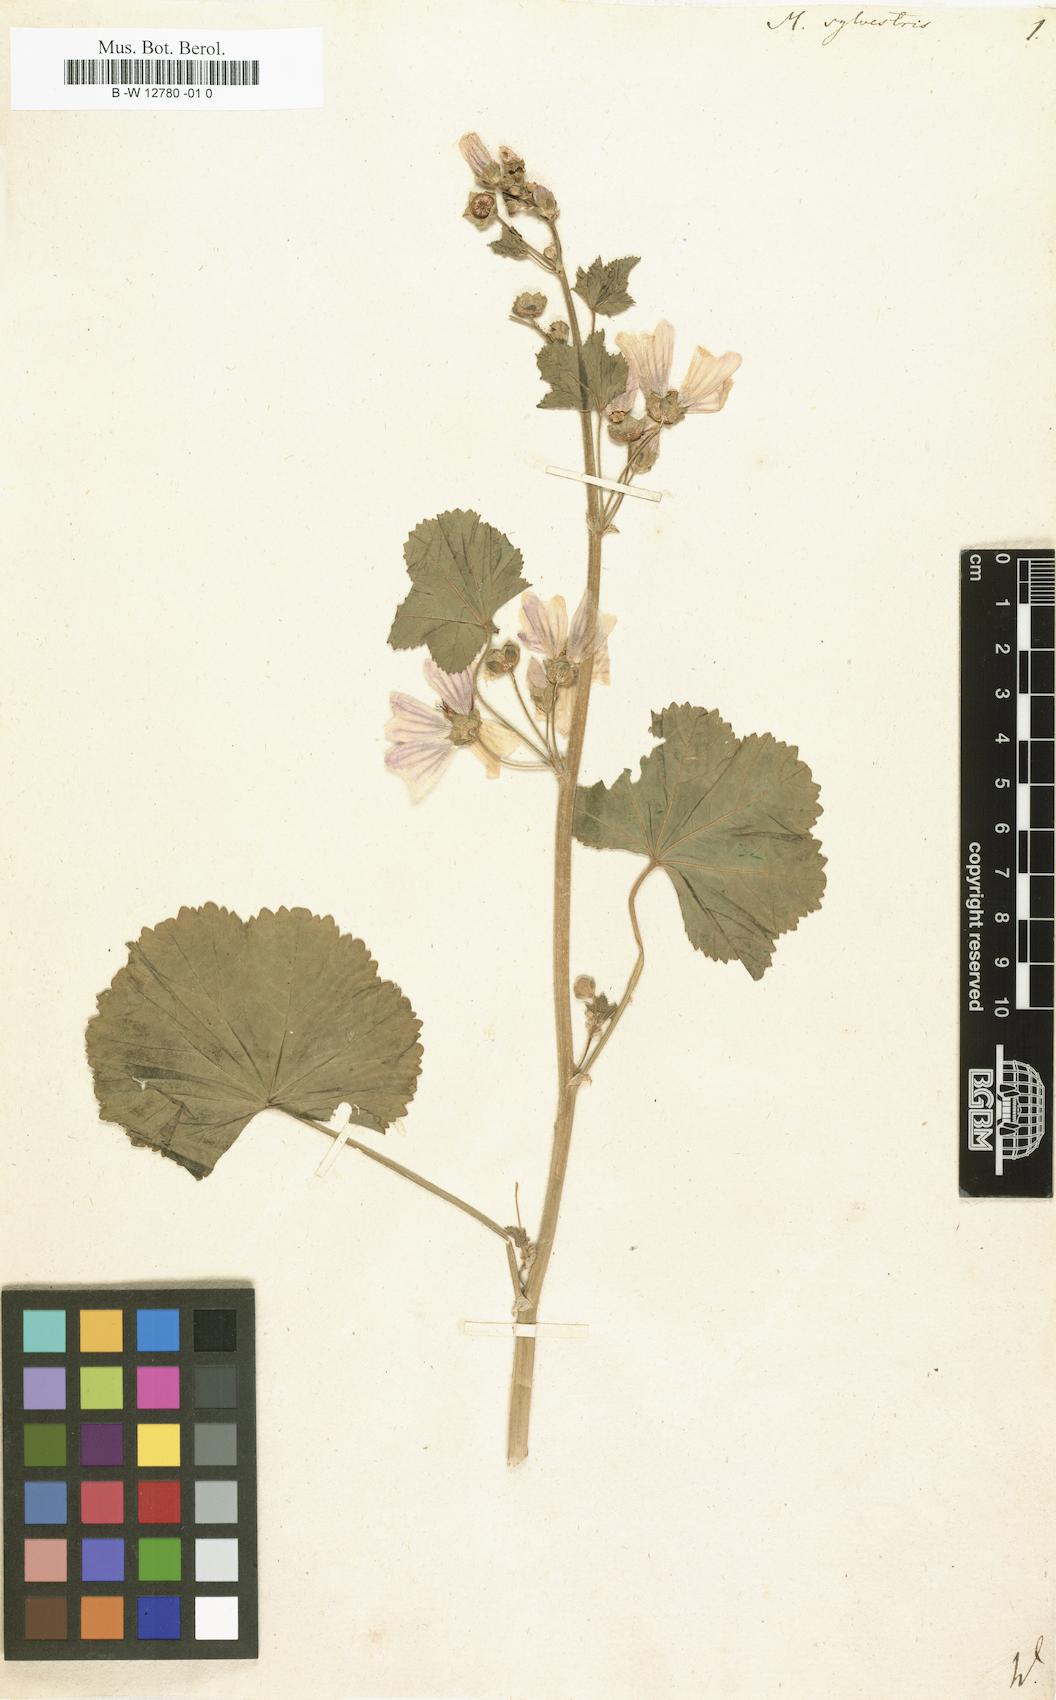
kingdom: Plantae
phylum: Tracheophyta
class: Magnoliopsida
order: Malvales
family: Malvaceae
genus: Malva
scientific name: Malva sylvestris
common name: Common mallow
